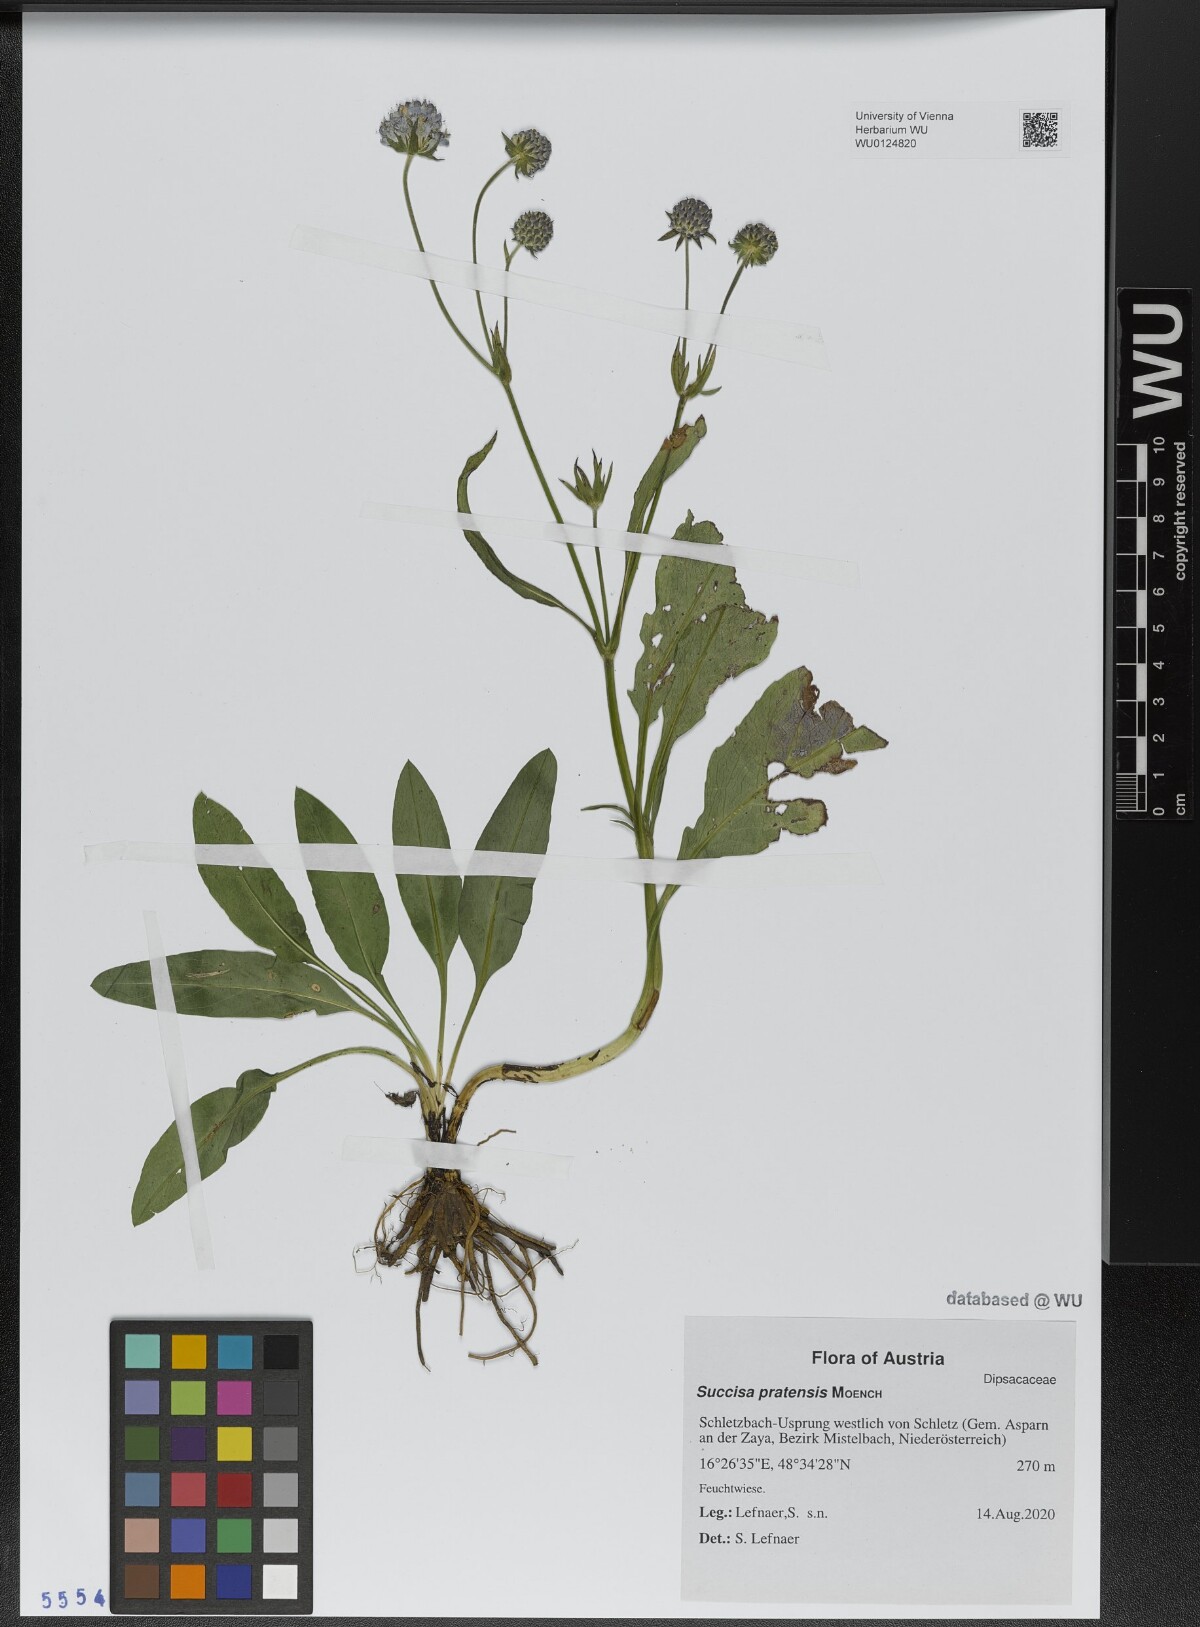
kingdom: Plantae
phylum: Tracheophyta
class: Magnoliopsida
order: Dipsacales
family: Caprifoliaceae
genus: Succisa
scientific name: Succisa pratensis
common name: Devil's-bit
